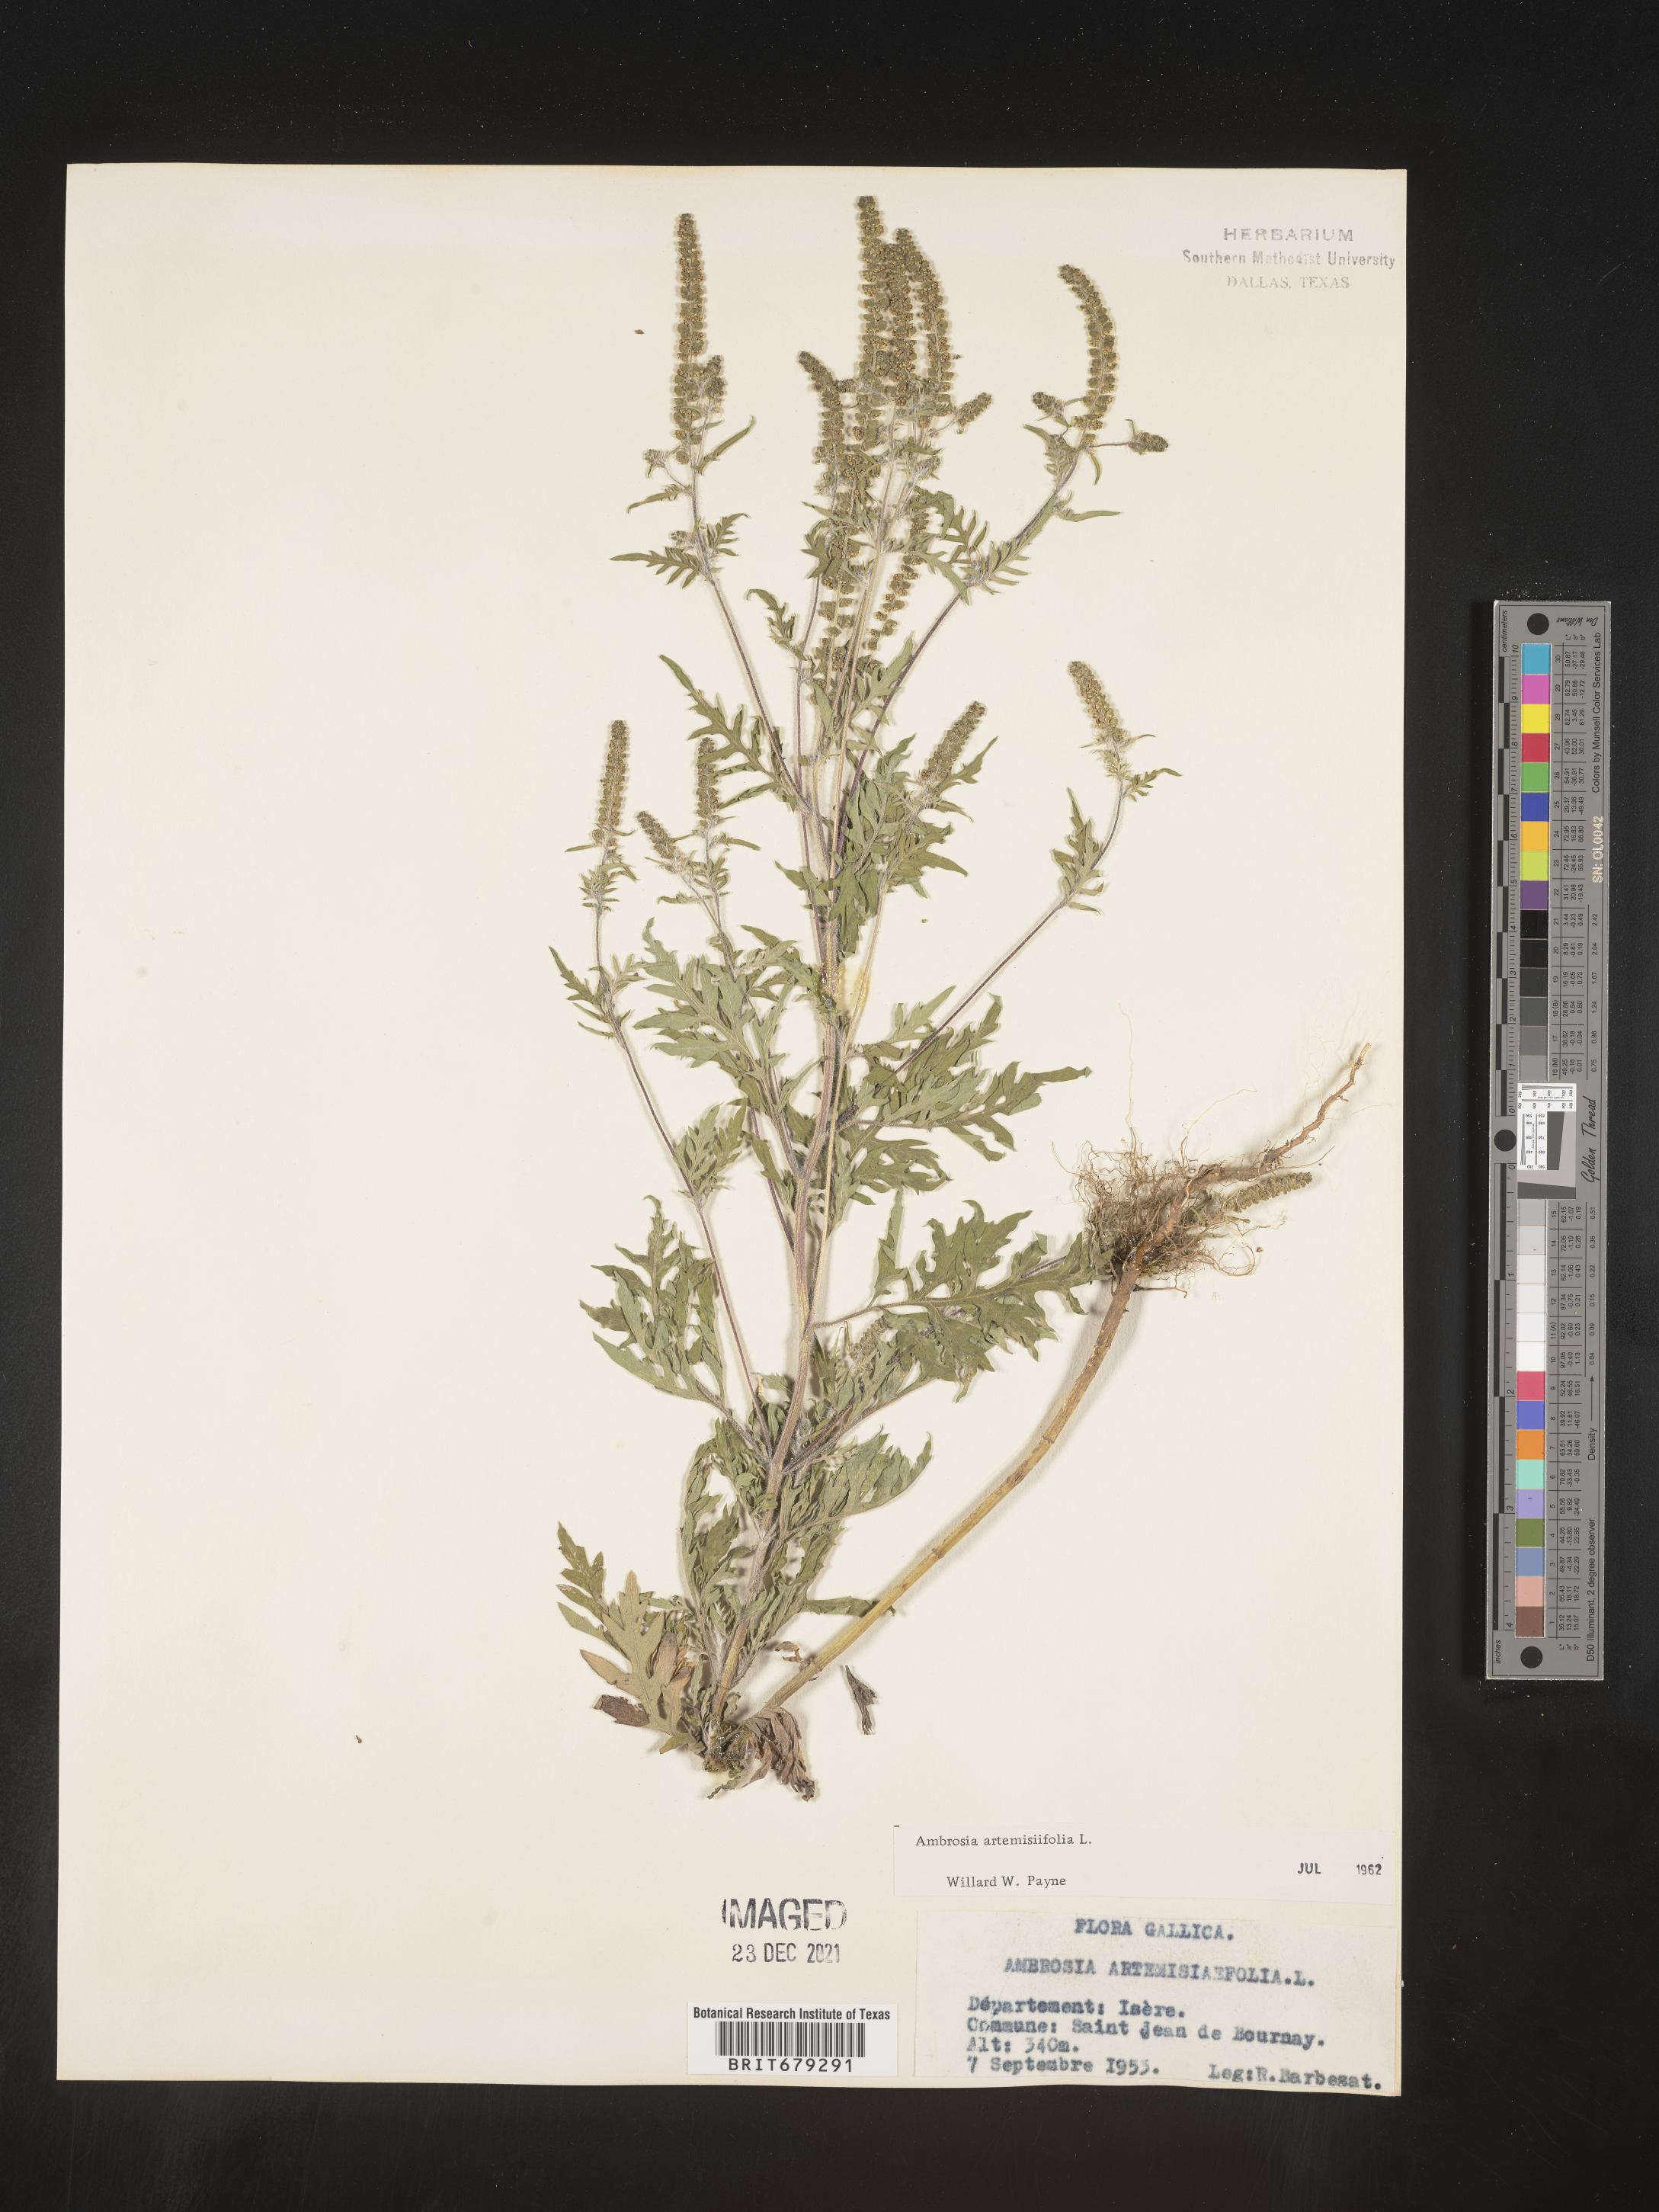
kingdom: Plantae
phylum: Tracheophyta
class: Magnoliopsida
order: Asterales
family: Asteraceae
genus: Ambrosia
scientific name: Ambrosia
